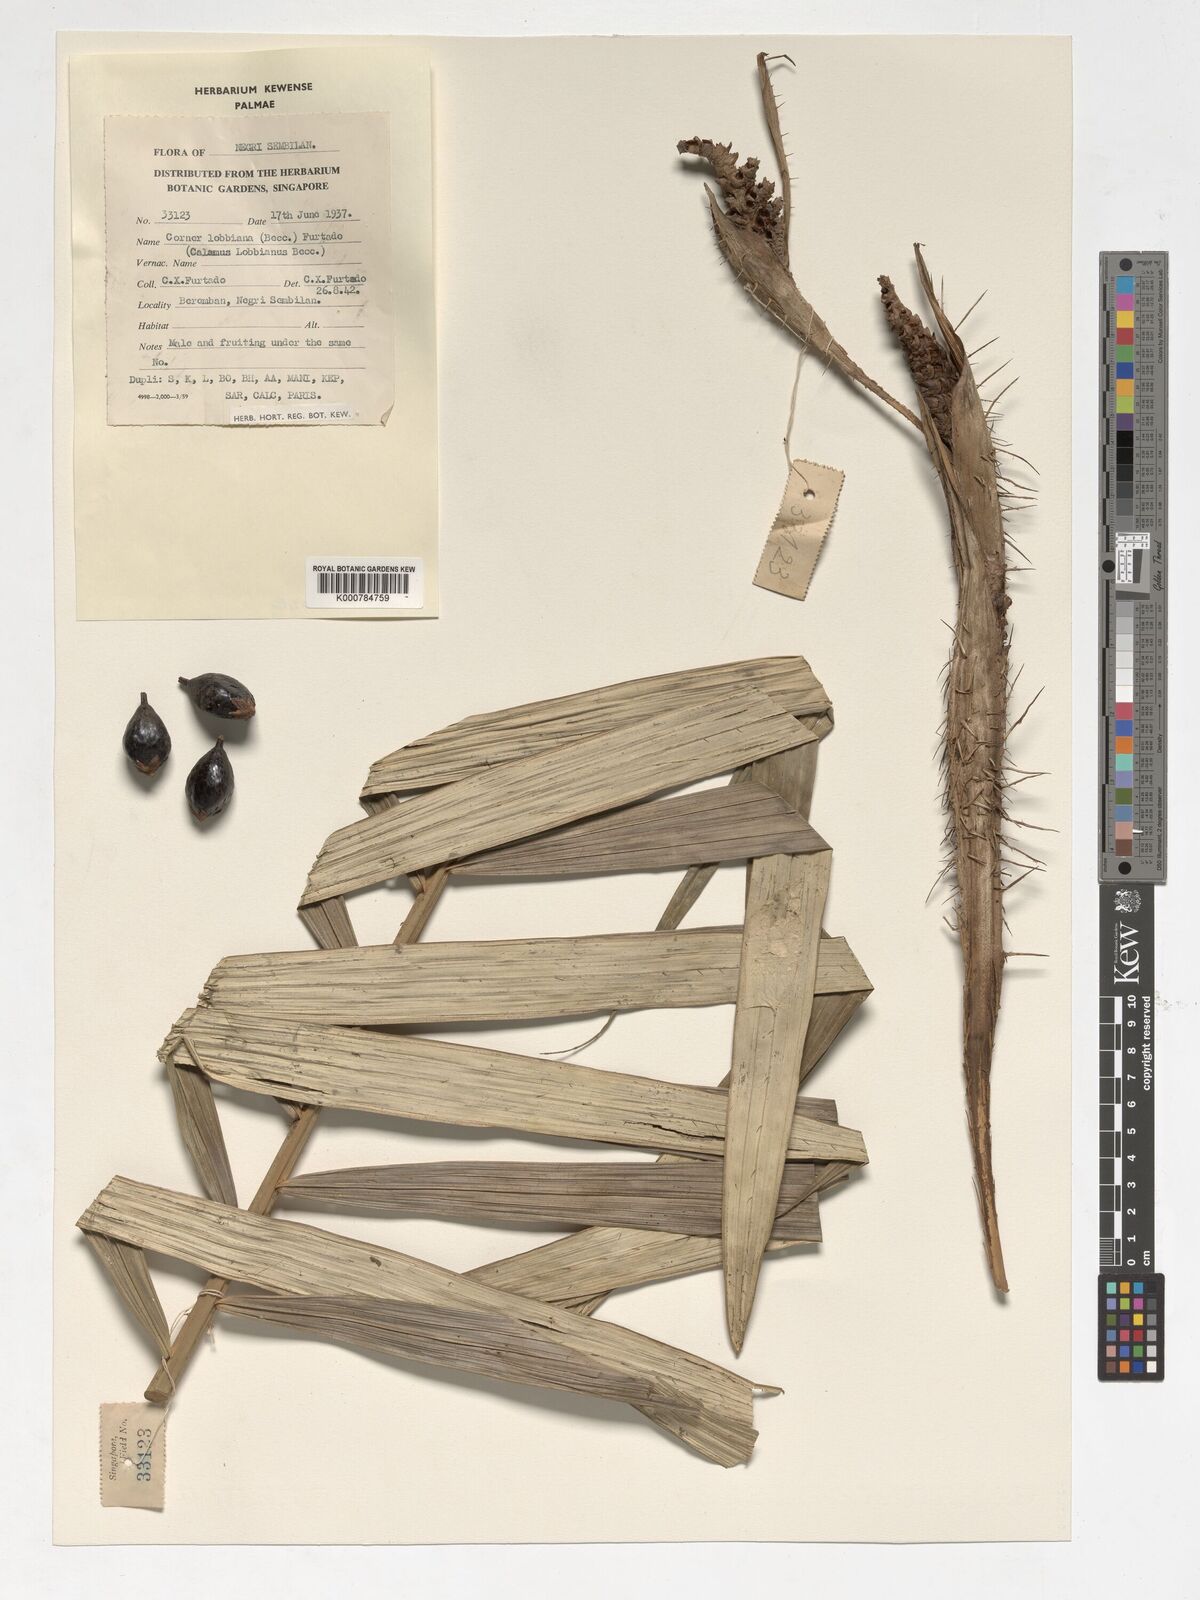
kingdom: Plantae
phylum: Tracheophyta
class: Liliopsida
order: Arecales
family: Arecaceae
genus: Calamus
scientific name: Calamus lobbianus
